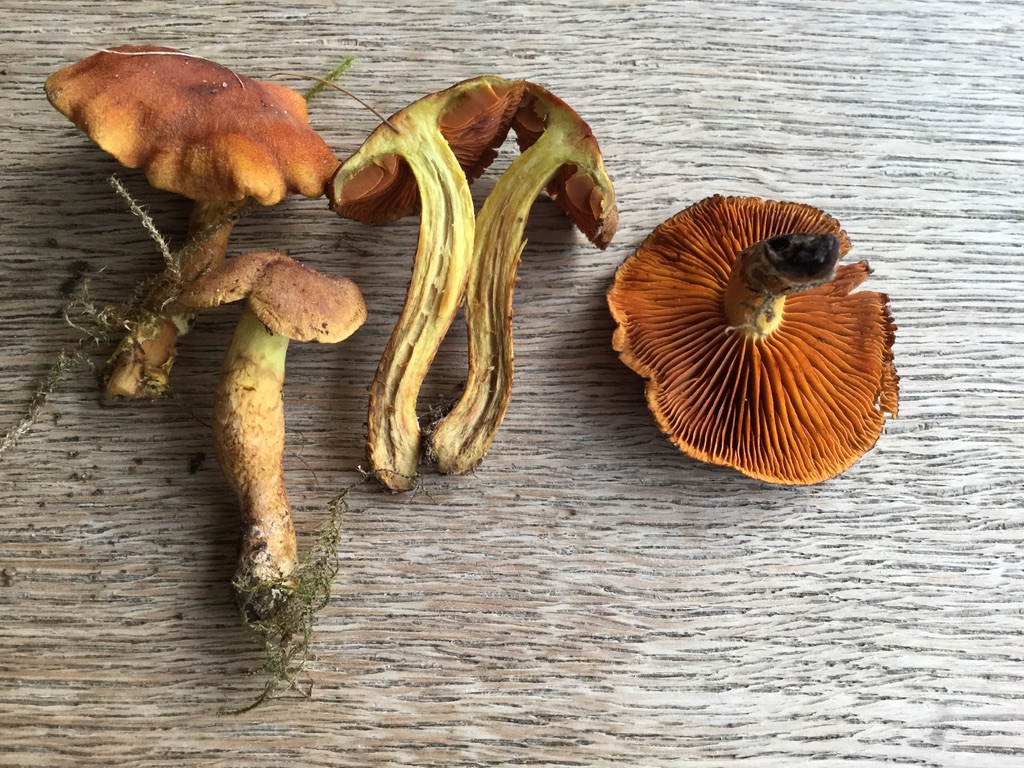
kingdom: Fungi
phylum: Basidiomycota
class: Agaricomycetes
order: Agaricales
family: Cortinariaceae
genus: Cortinarius
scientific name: Cortinarius malicorius
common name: grønkødet slørhat
